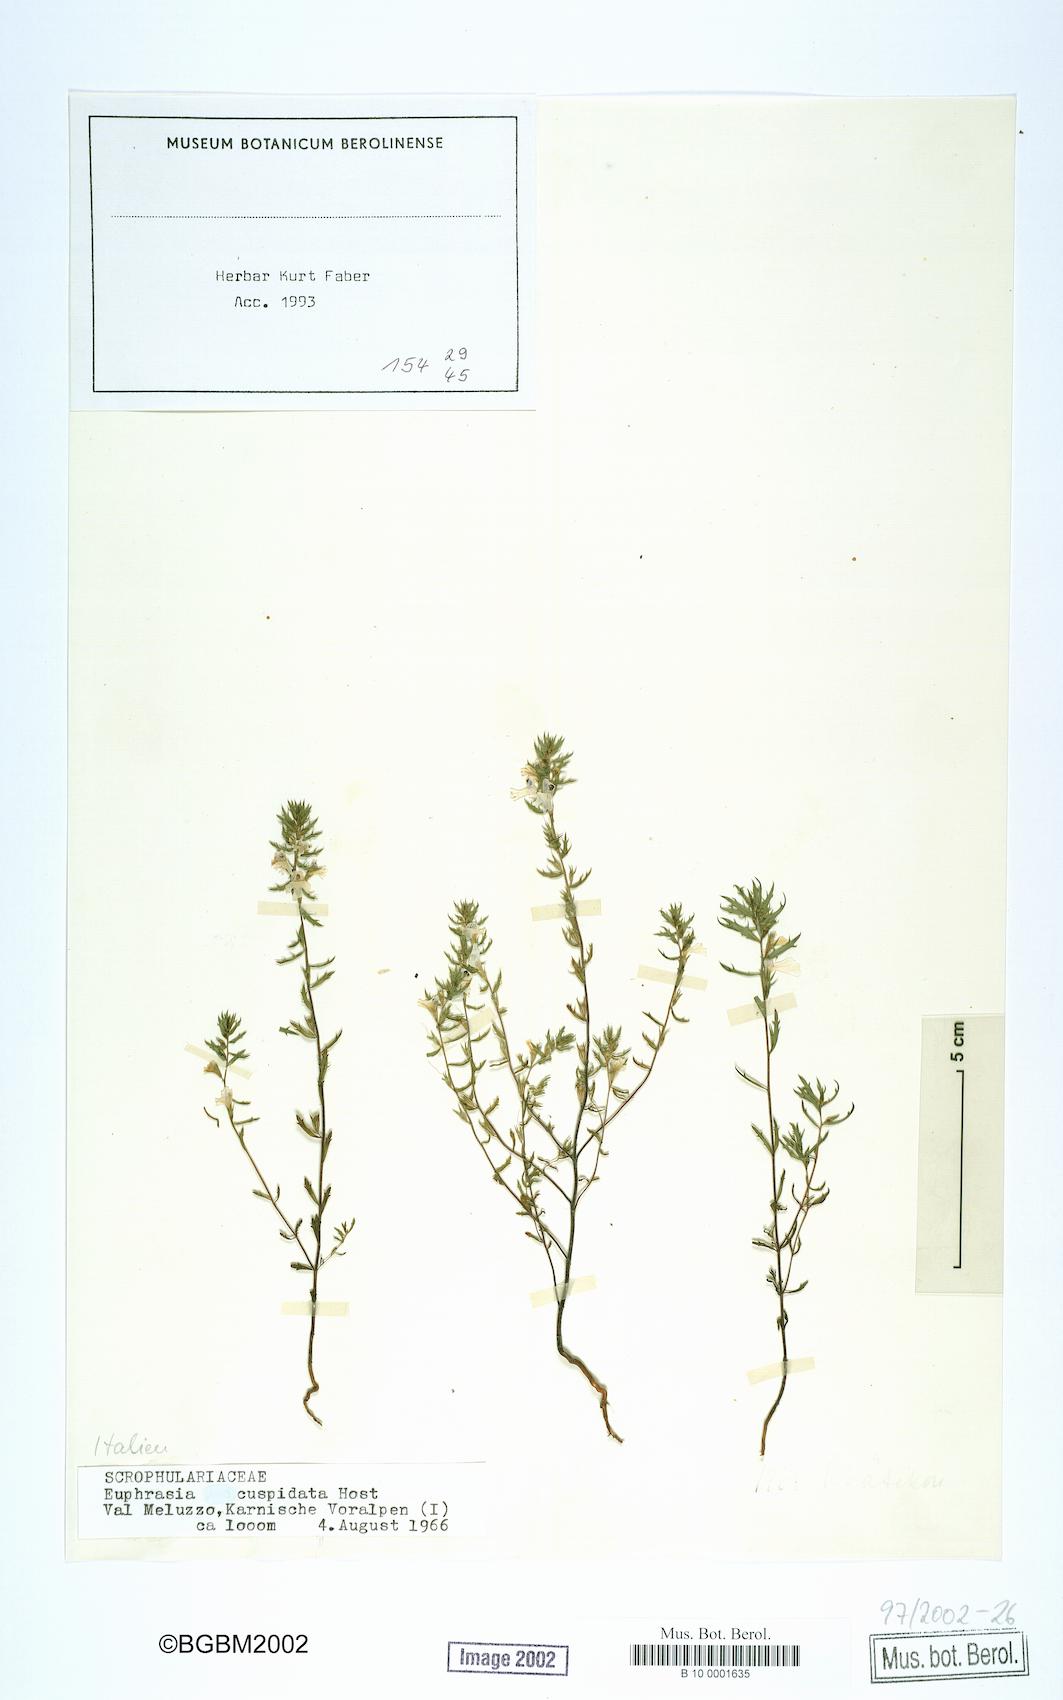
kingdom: Plantae
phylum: Tracheophyta
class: Magnoliopsida
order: Lamiales
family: Orobanchaceae
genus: Euphrasia
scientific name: Euphrasia cuspidata
